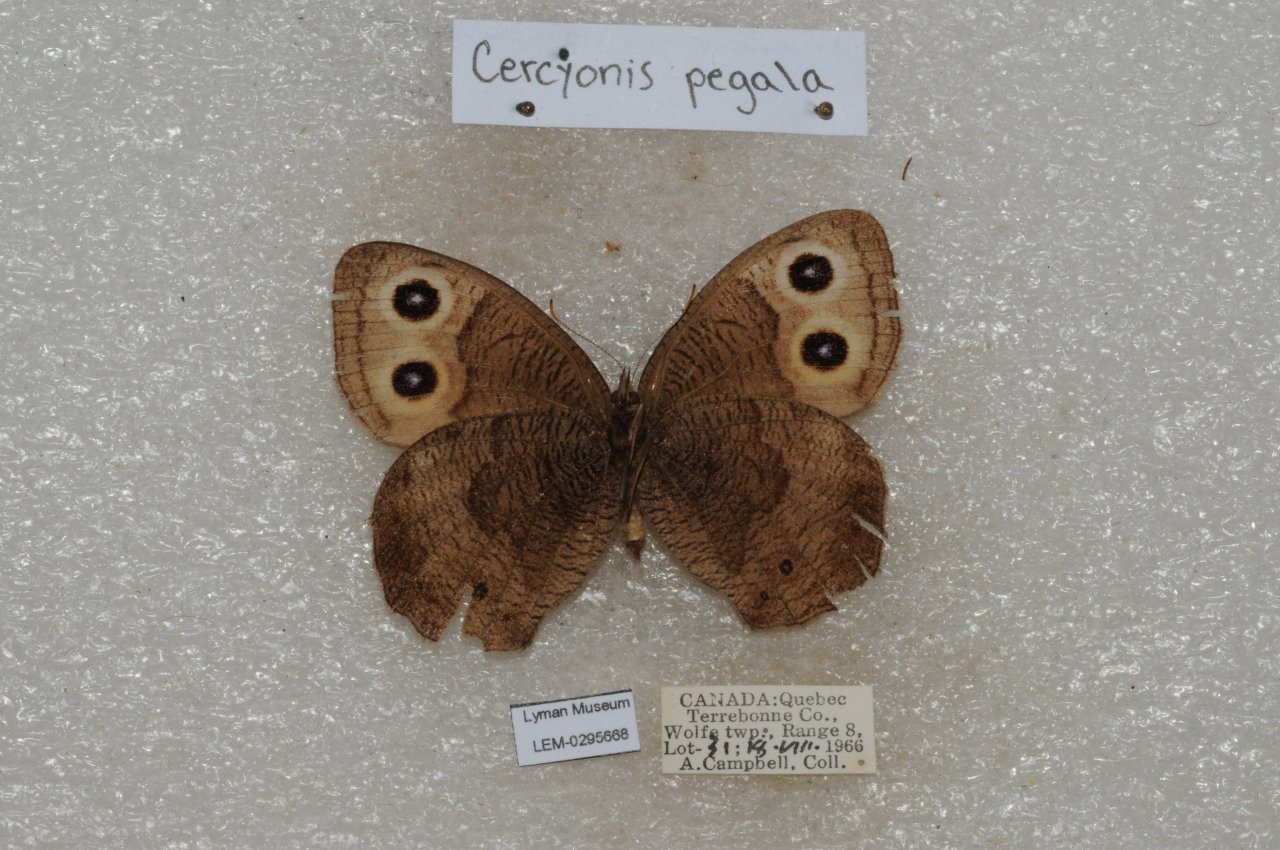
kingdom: Animalia
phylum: Arthropoda
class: Insecta
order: Lepidoptera
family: Nymphalidae
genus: Cercyonis
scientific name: Cercyonis pegala
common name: Common Wood-Nymph
